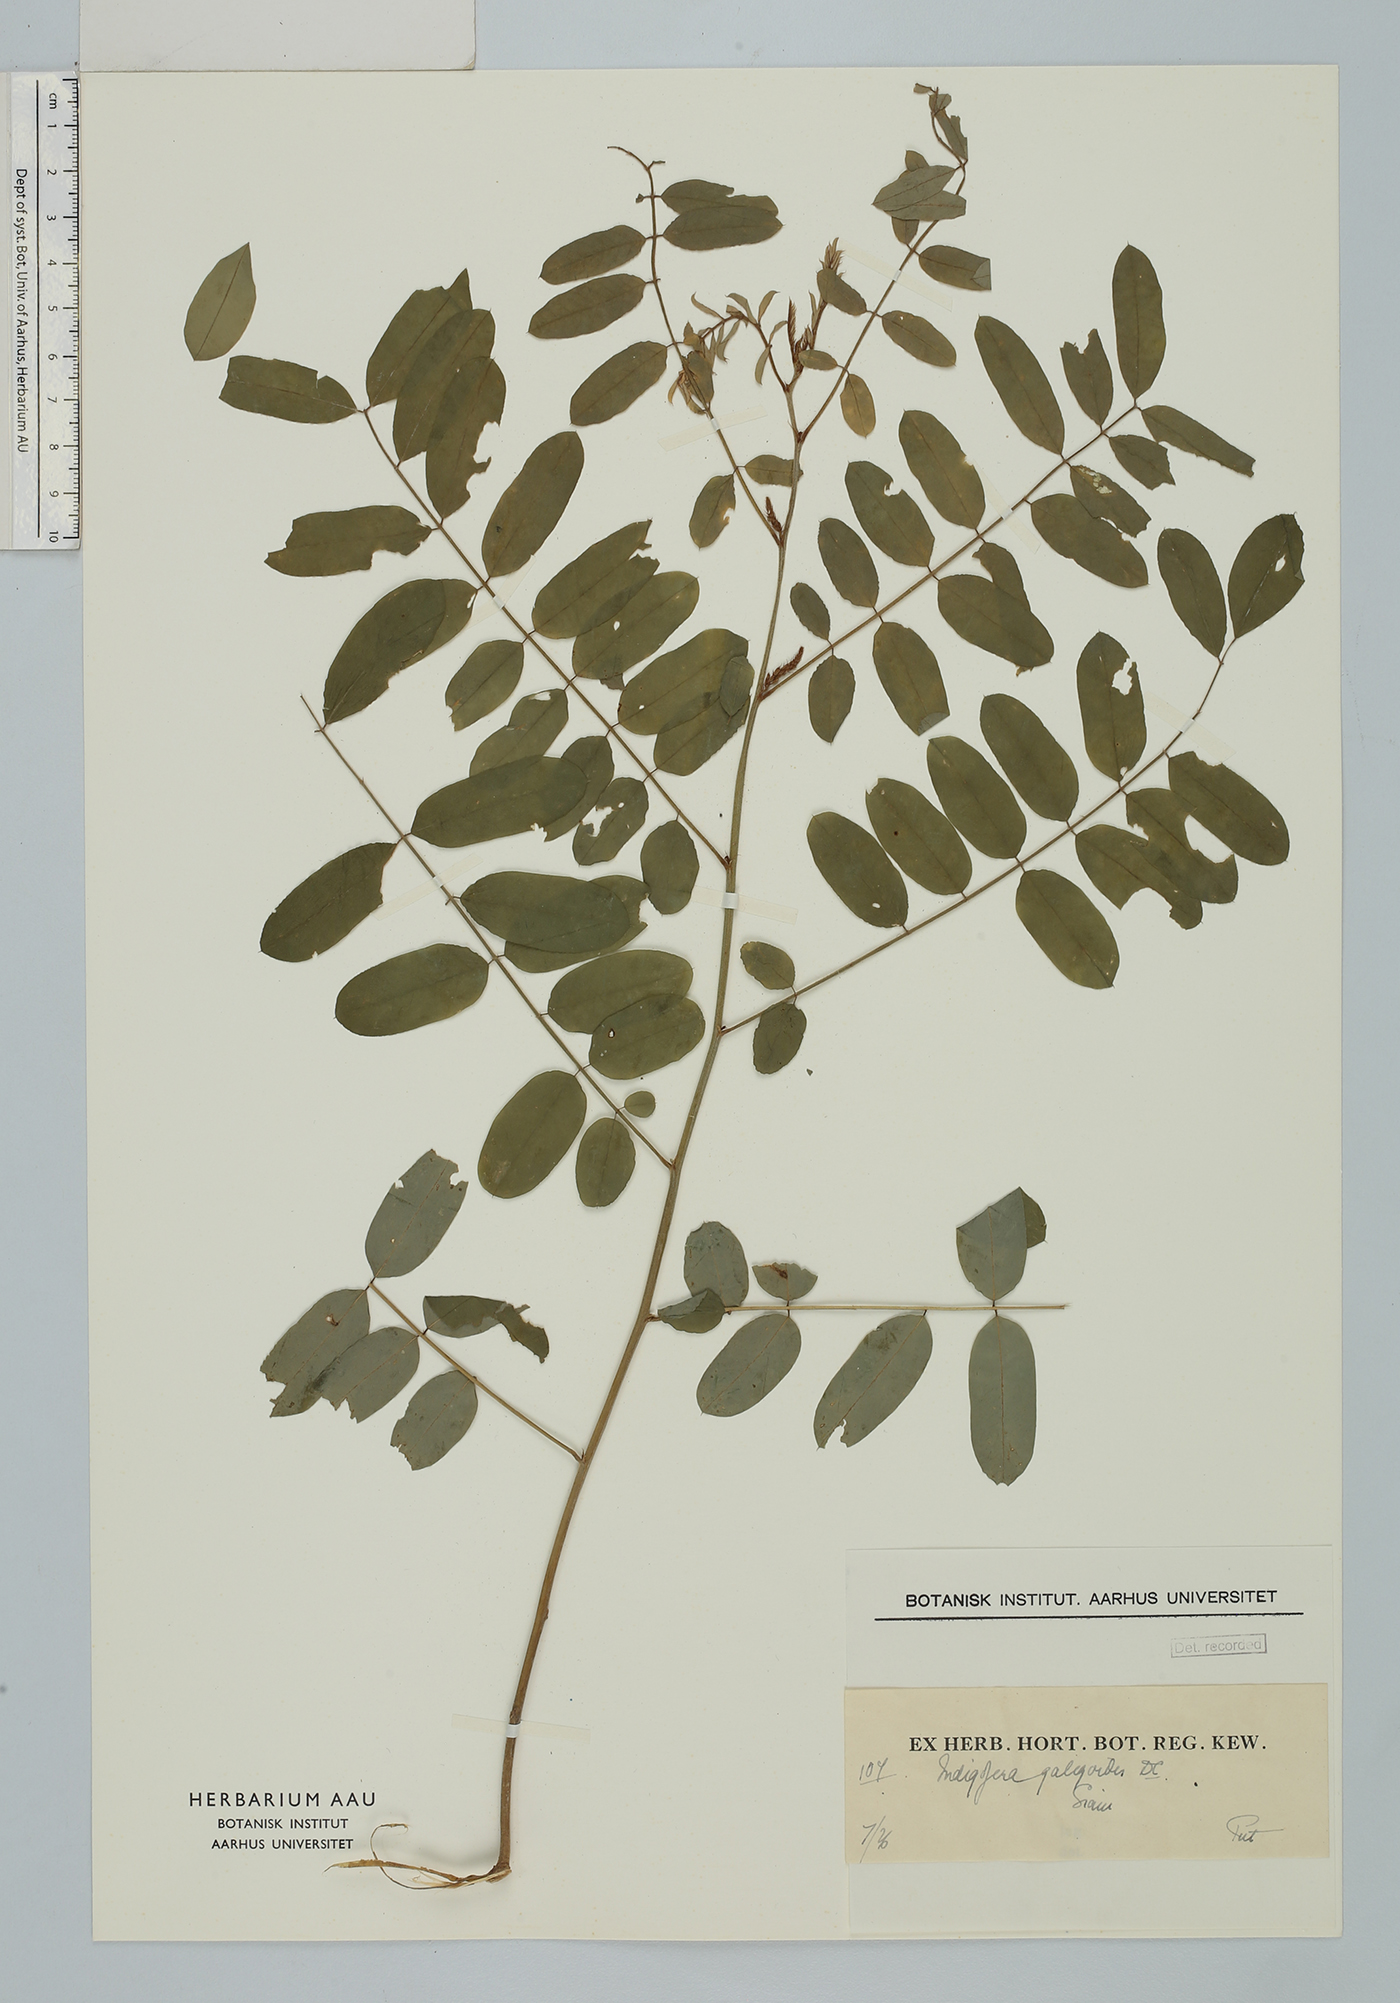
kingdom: Plantae
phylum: Tracheophyta
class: Magnoliopsida
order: Fabales
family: Fabaceae
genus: Indigofera
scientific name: Indigofera galegoides
